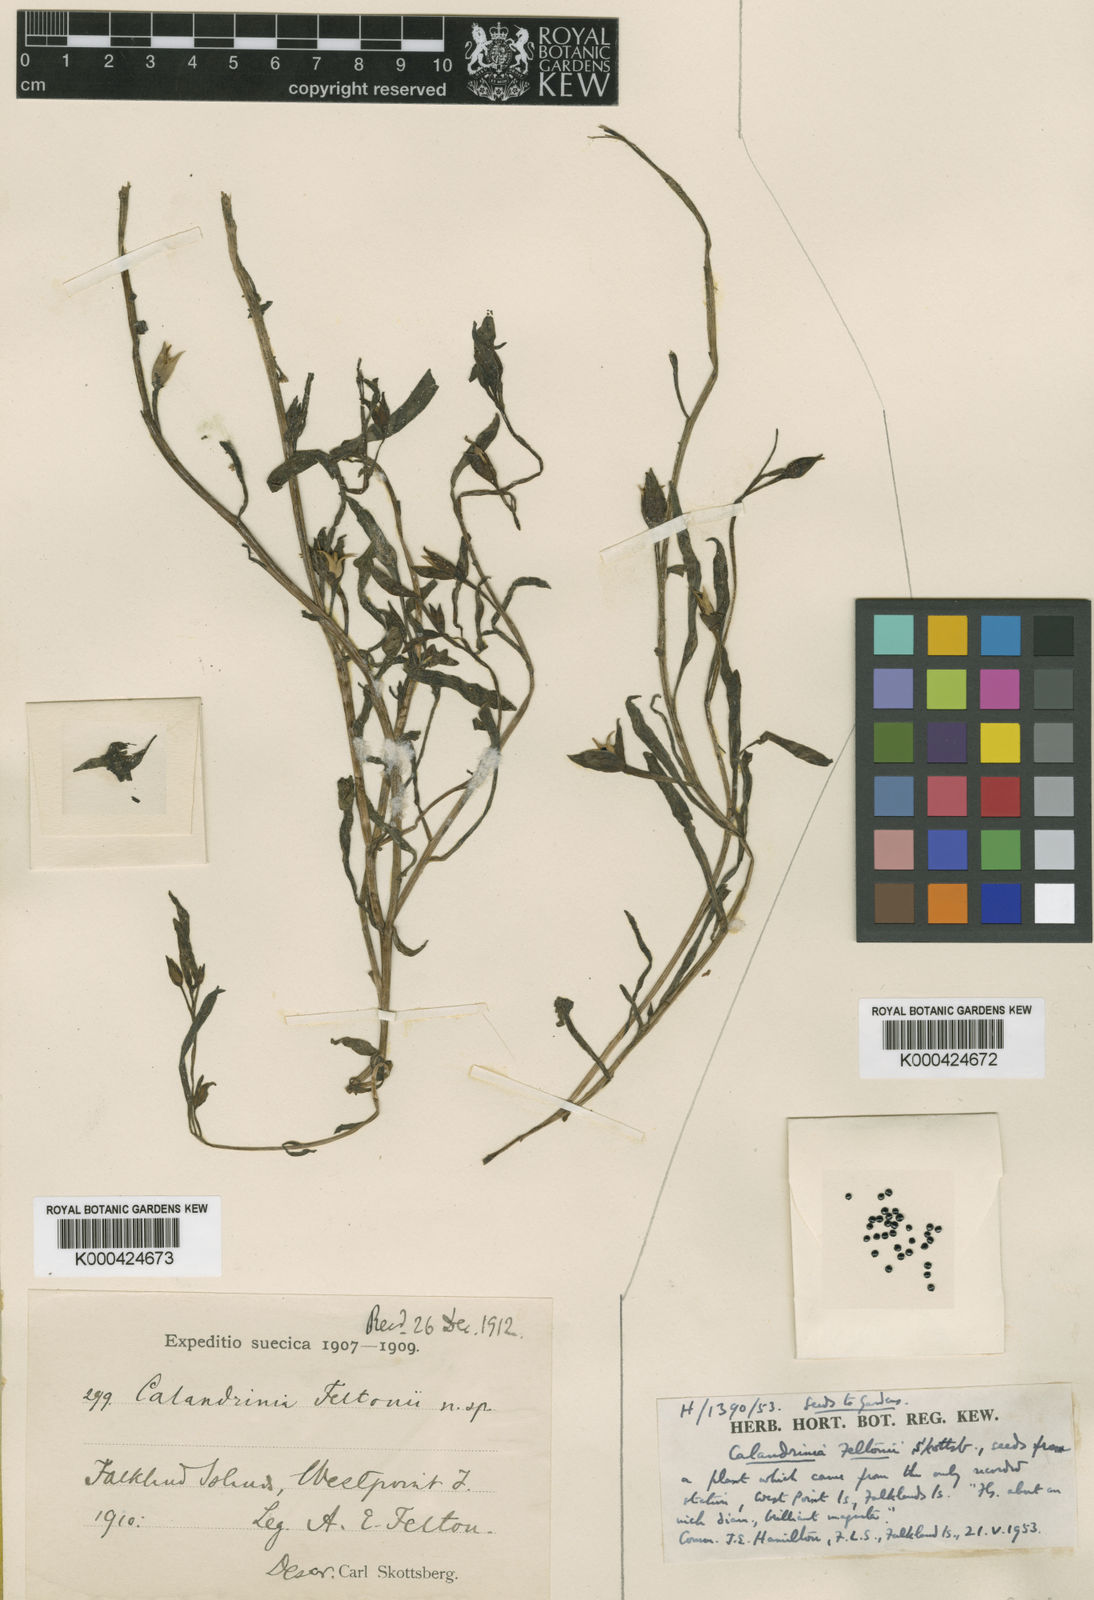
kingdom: Plantae
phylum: Tracheophyta
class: Magnoliopsida
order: Caryophyllales
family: Montiaceae
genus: Calandrinia
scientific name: Calandrinia ciliata
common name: Red-maids
